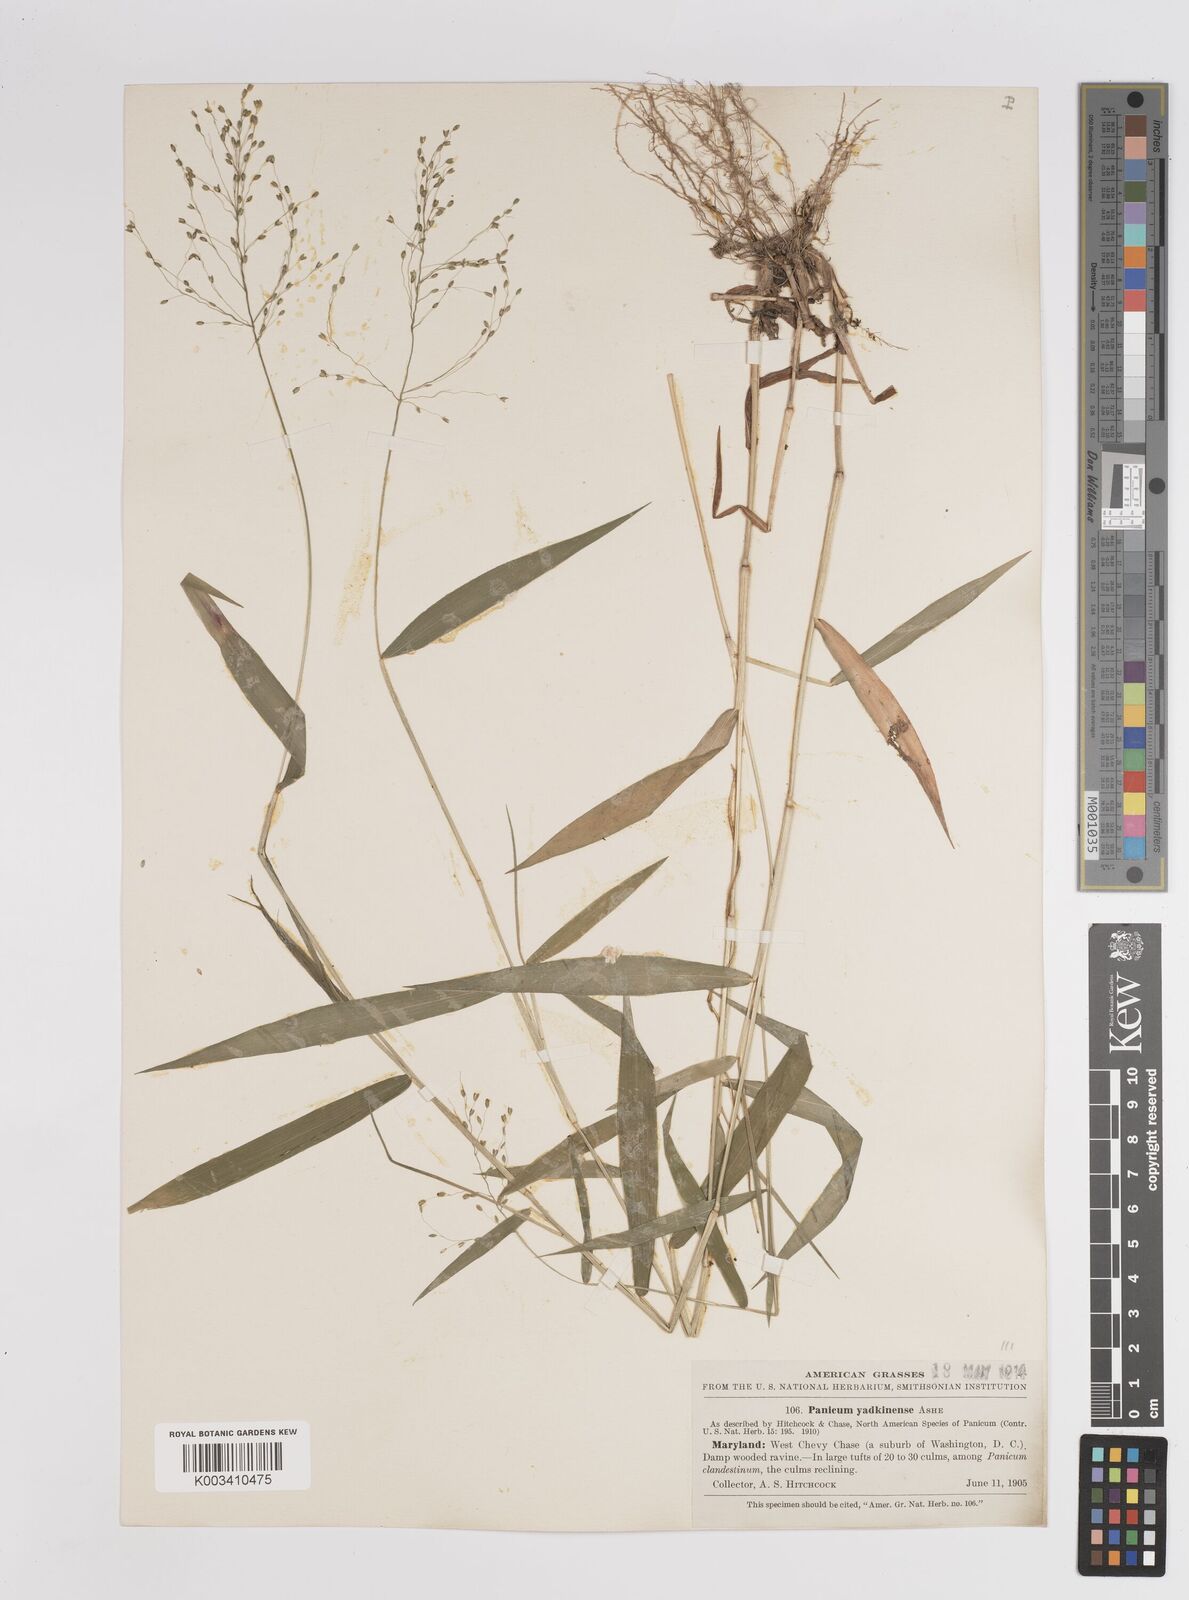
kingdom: Plantae
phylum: Tracheophyta
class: Liliopsida
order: Poales
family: Poaceae
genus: Dichanthelium
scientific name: Dichanthelium dichotomum
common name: Cypress panicgrass
